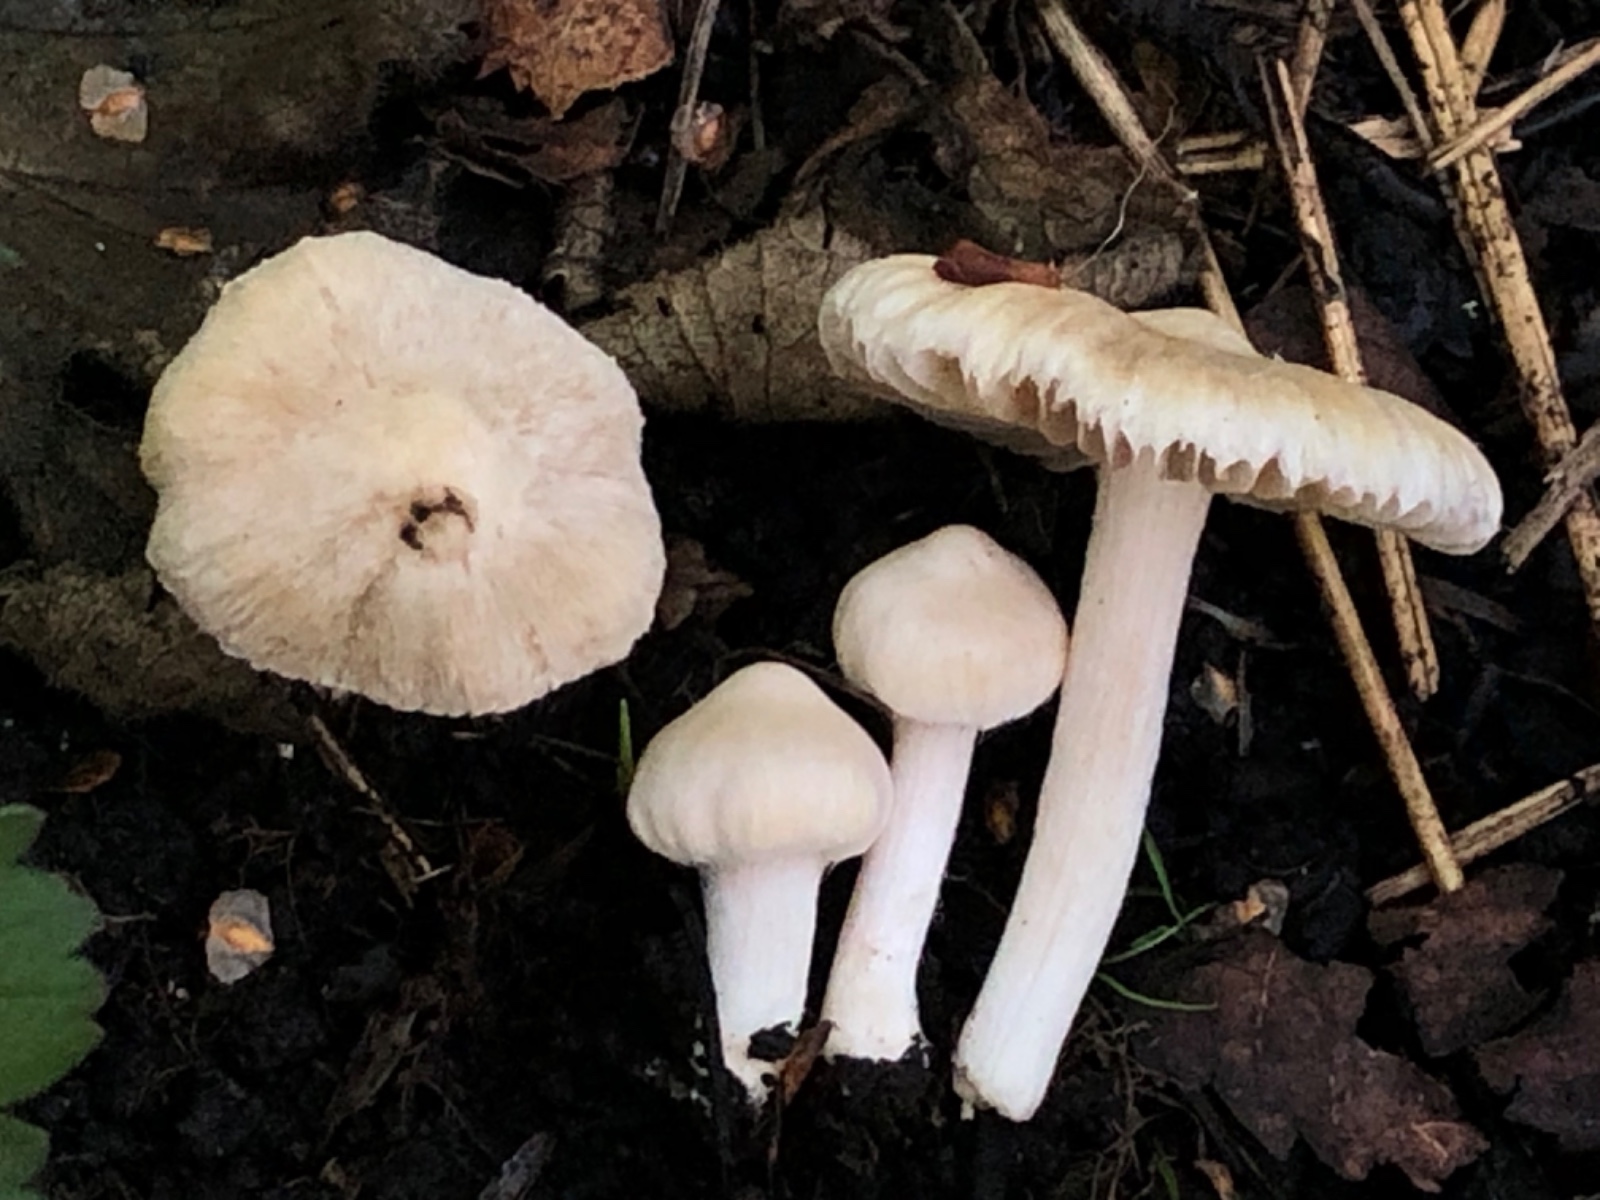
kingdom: Fungi
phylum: Basidiomycota
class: Agaricomycetes
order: Agaricales
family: Inocybaceae
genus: Inocybe
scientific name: Inocybe
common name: trævlhat
